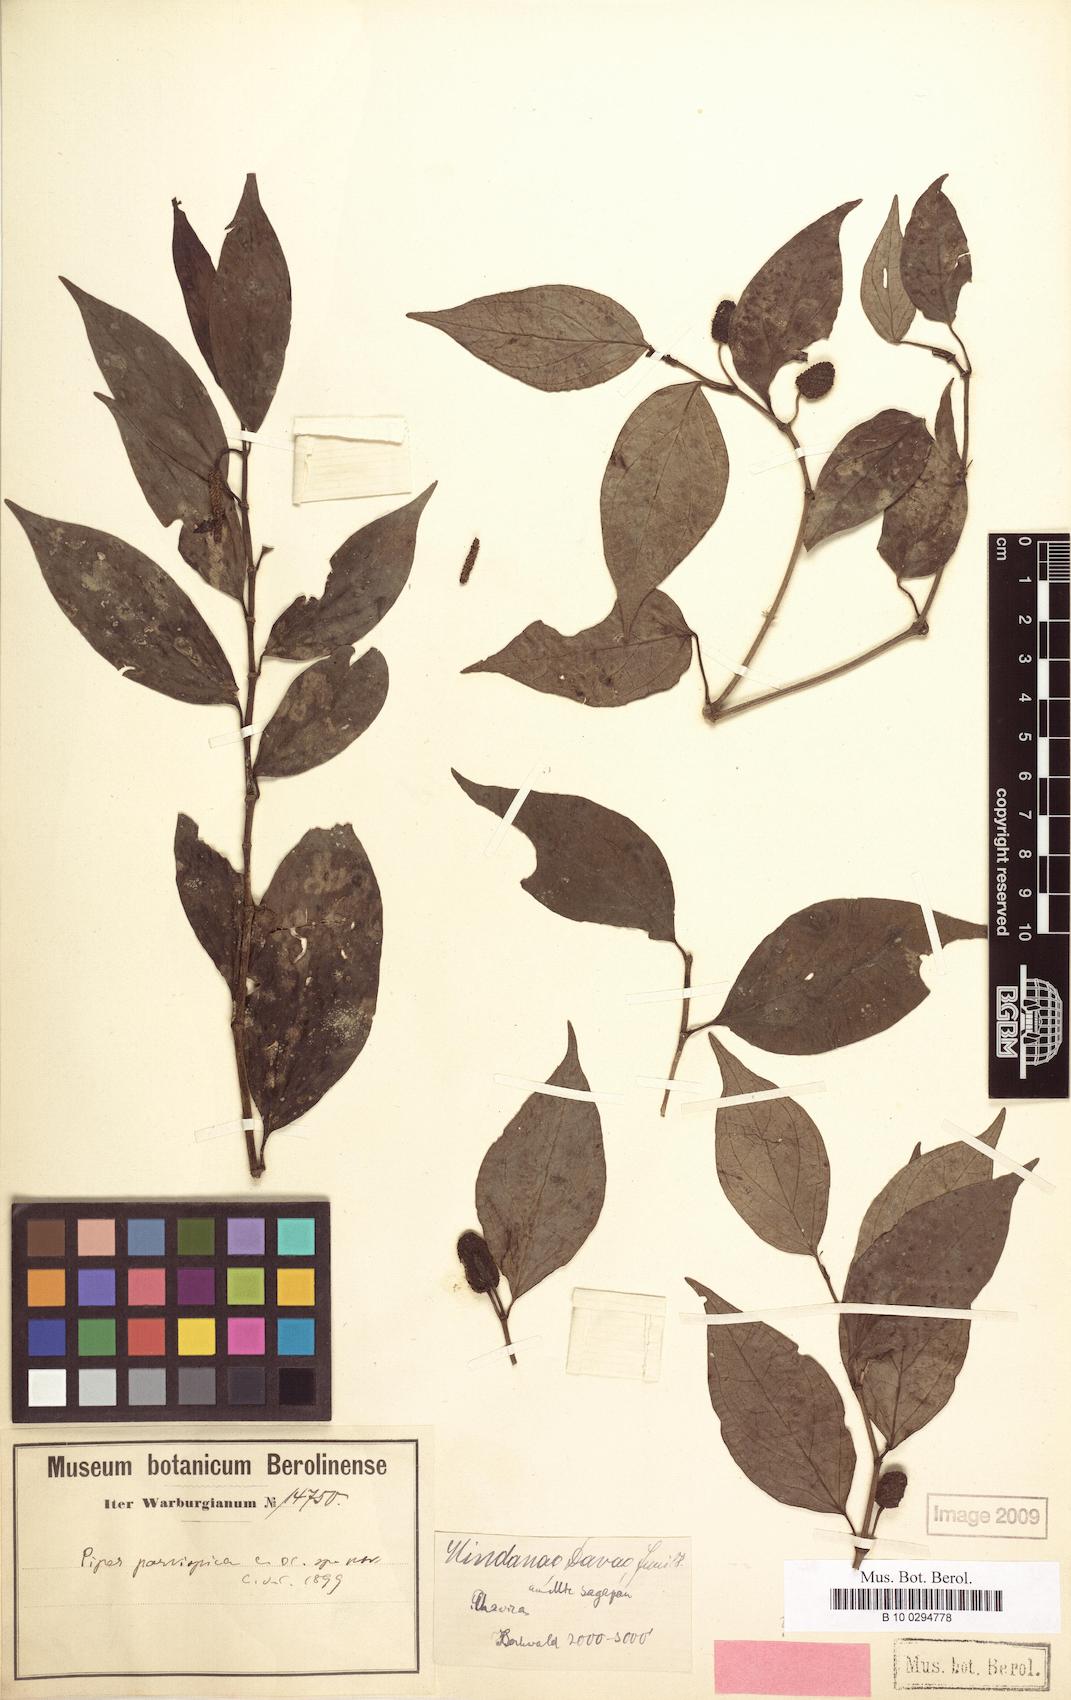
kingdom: Plantae
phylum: Tracheophyta
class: Magnoliopsida
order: Piperales
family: Piperaceae
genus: Piper
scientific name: Piper abbreviatum
